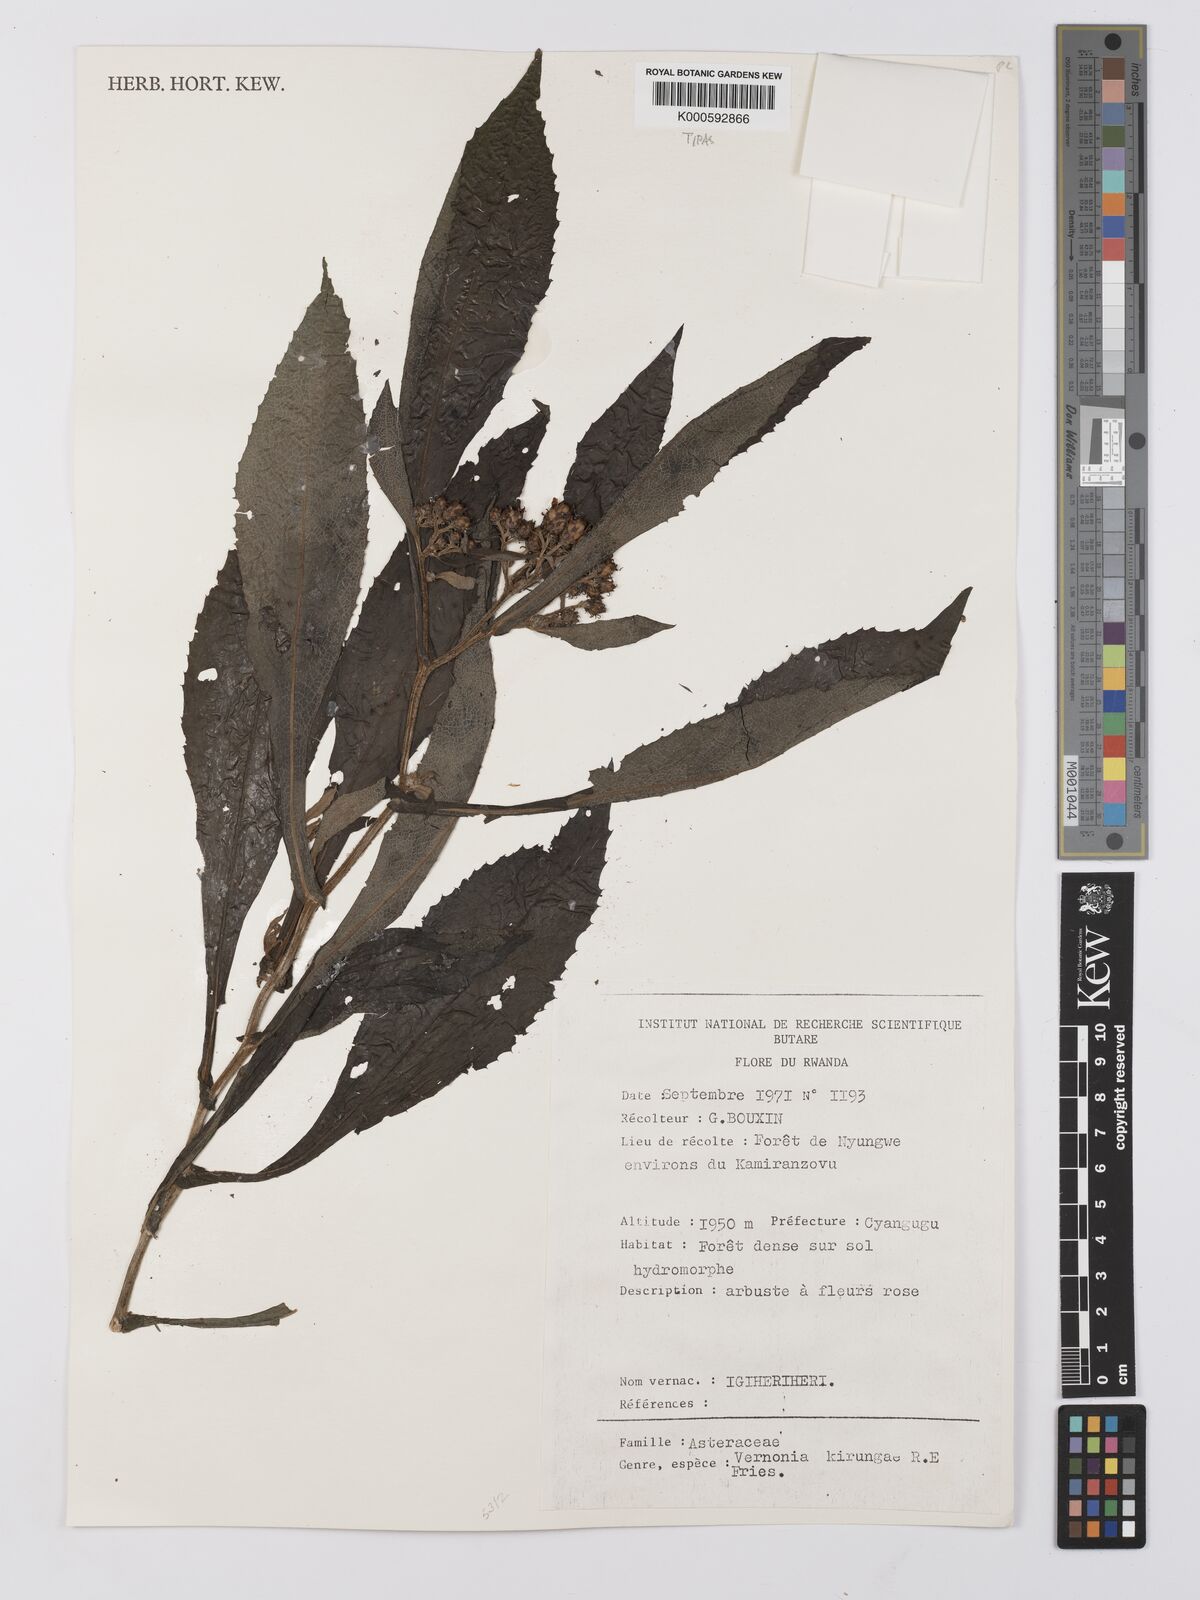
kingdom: Plantae
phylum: Tracheophyta
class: Magnoliopsida
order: Asterales
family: Asteraceae
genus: Baccharoides
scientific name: Baccharoides kirungae
